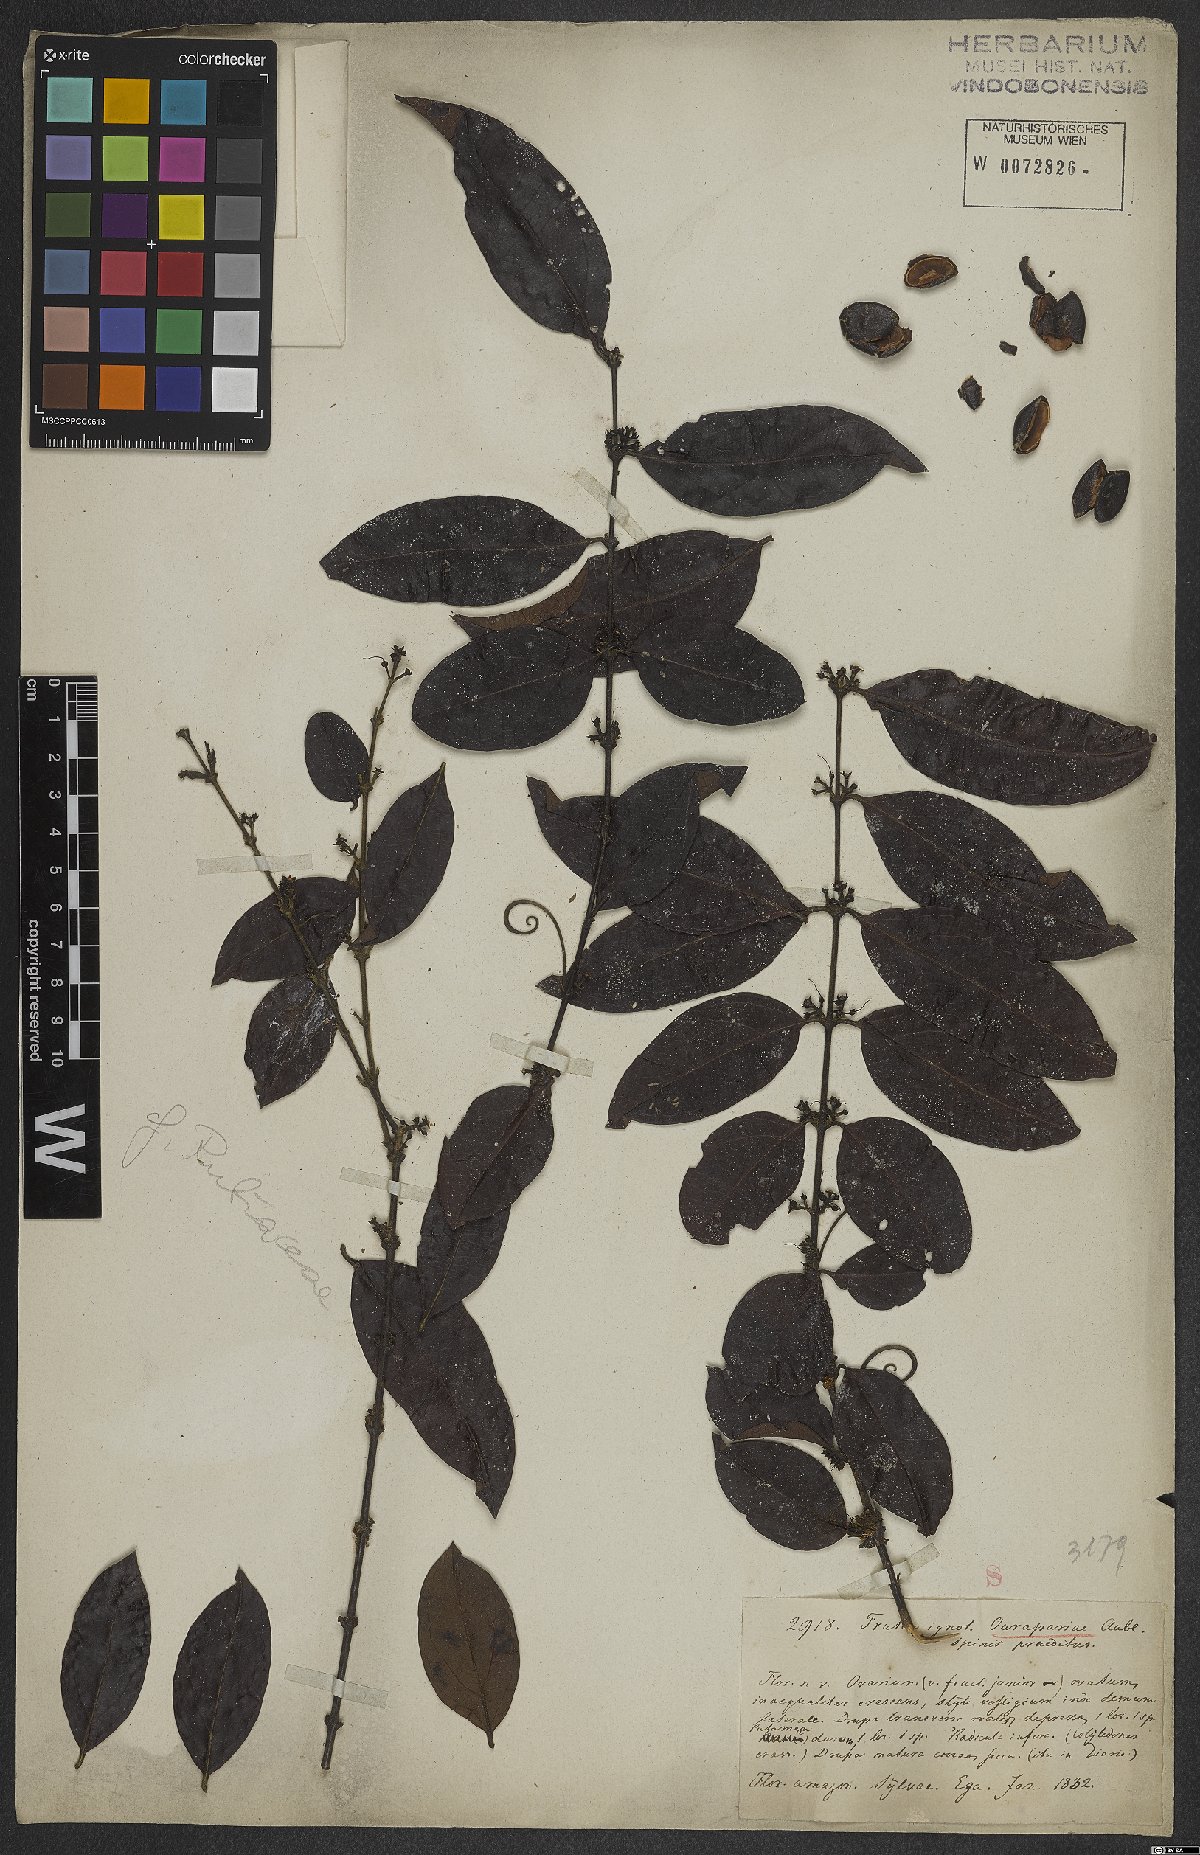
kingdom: Plantae
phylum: Tracheophyta
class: Magnoliopsida
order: Gentianales
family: Rubiaceae
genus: Uncaria
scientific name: Uncaria guianensis
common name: Cat's-claw
